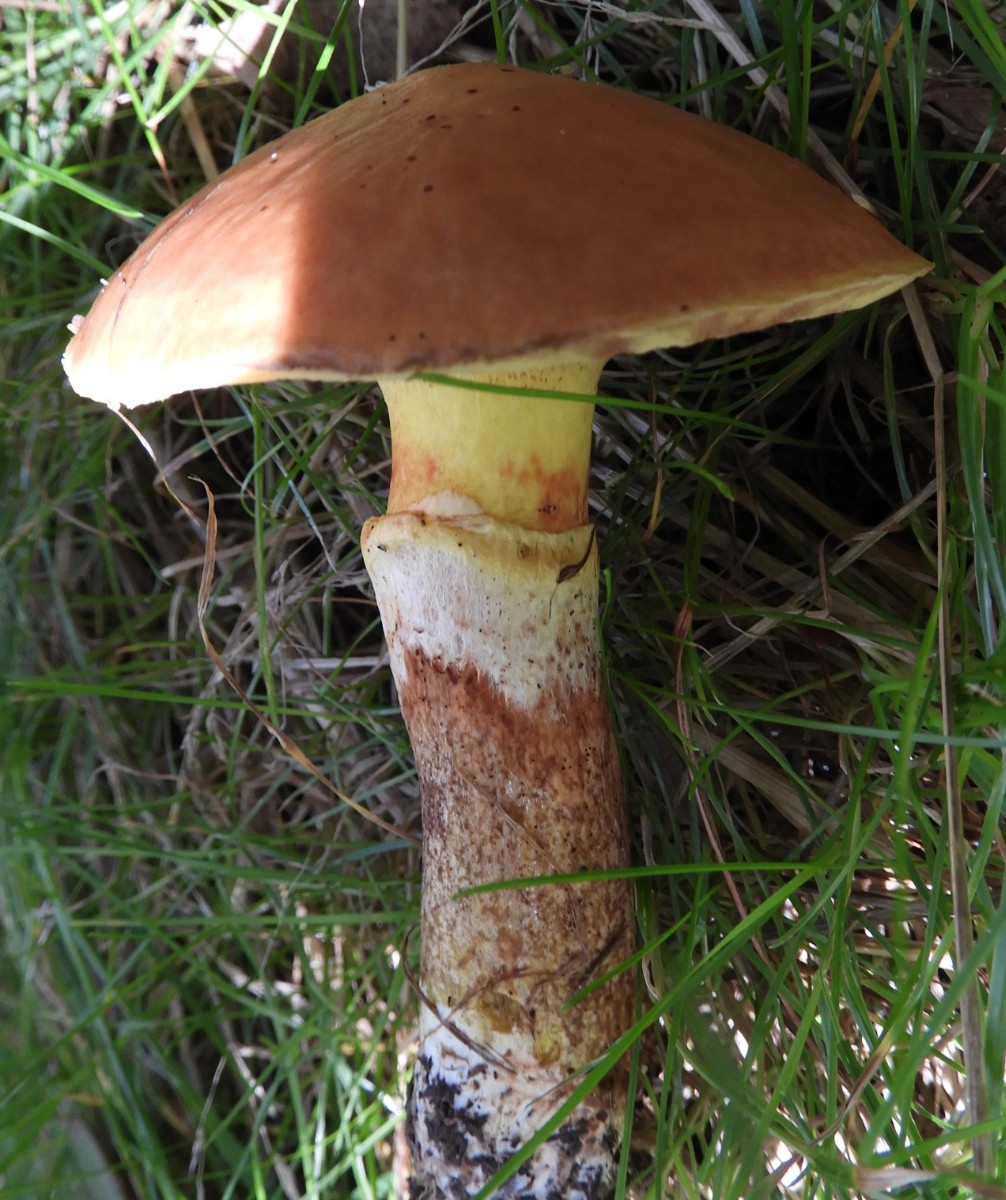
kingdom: Fungi
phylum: Basidiomycota
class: Agaricomycetes
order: Boletales
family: Suillaceae
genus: Suillus
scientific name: Suillus grevillei
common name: lærke-slimrørhat
